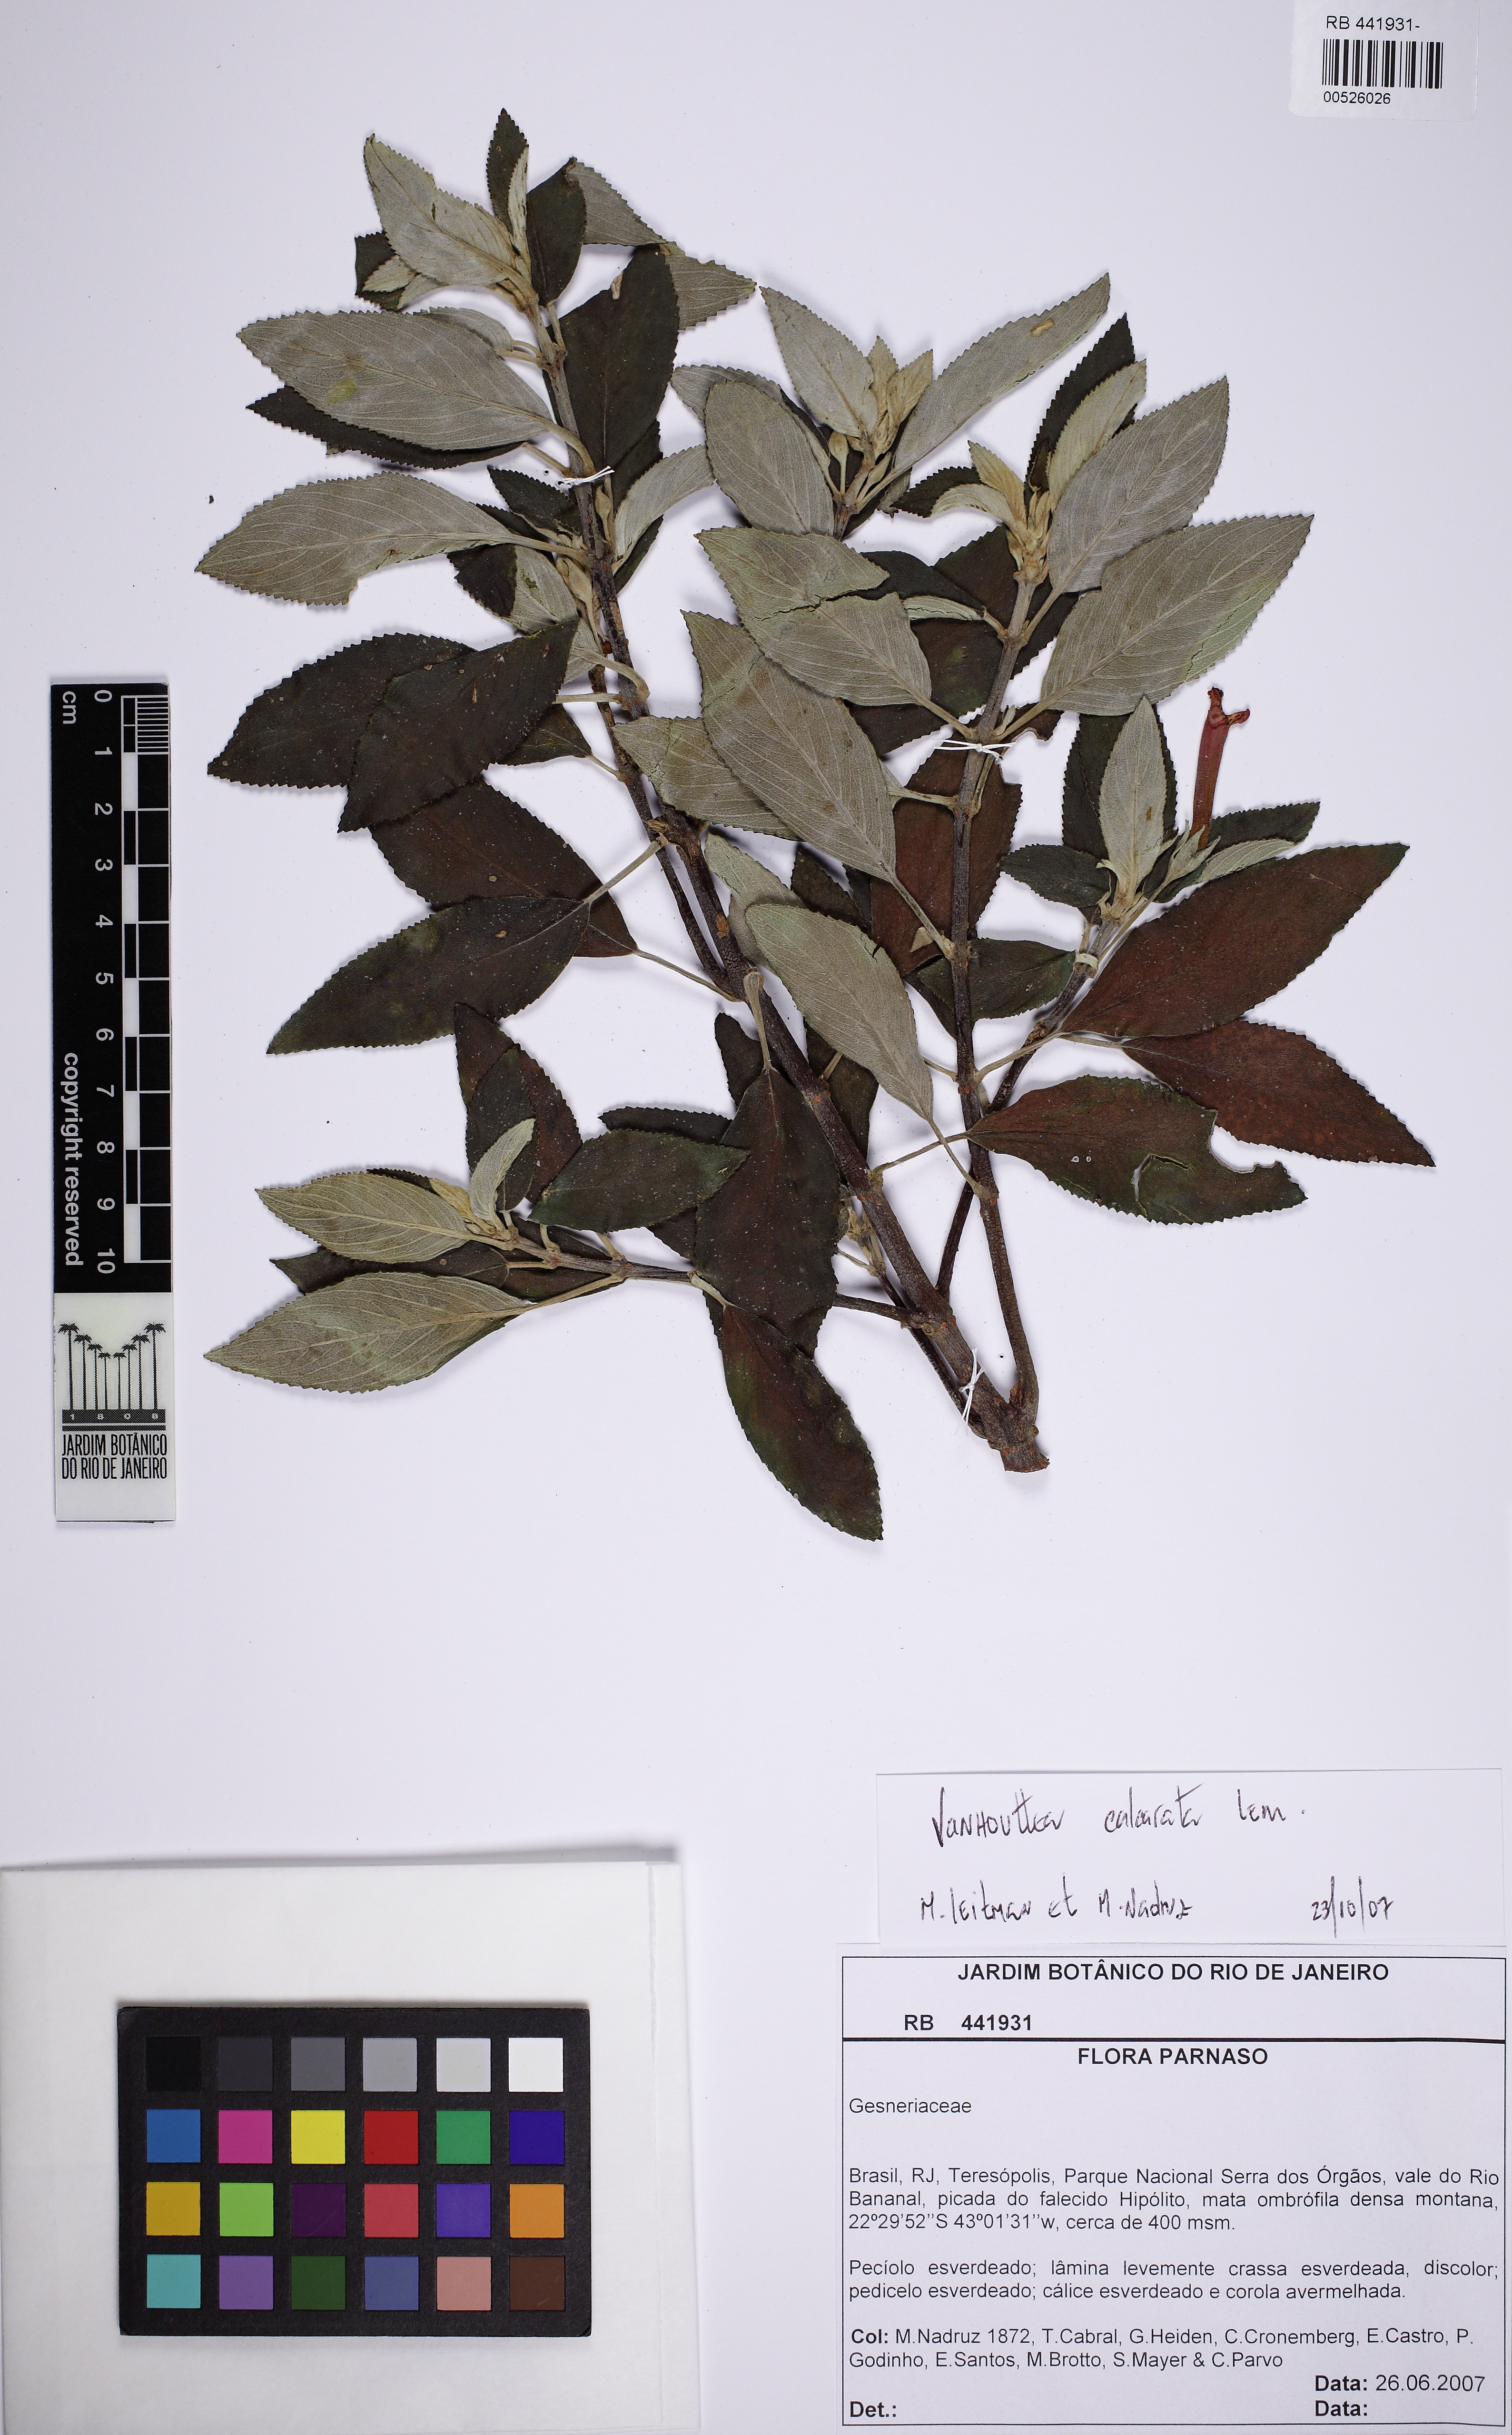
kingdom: Plantae
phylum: Tracheophyta
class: Magnoliopsida
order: Lamiales
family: Gesneriaceae
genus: Vanhouttea
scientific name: Vanhouttea calcarata
